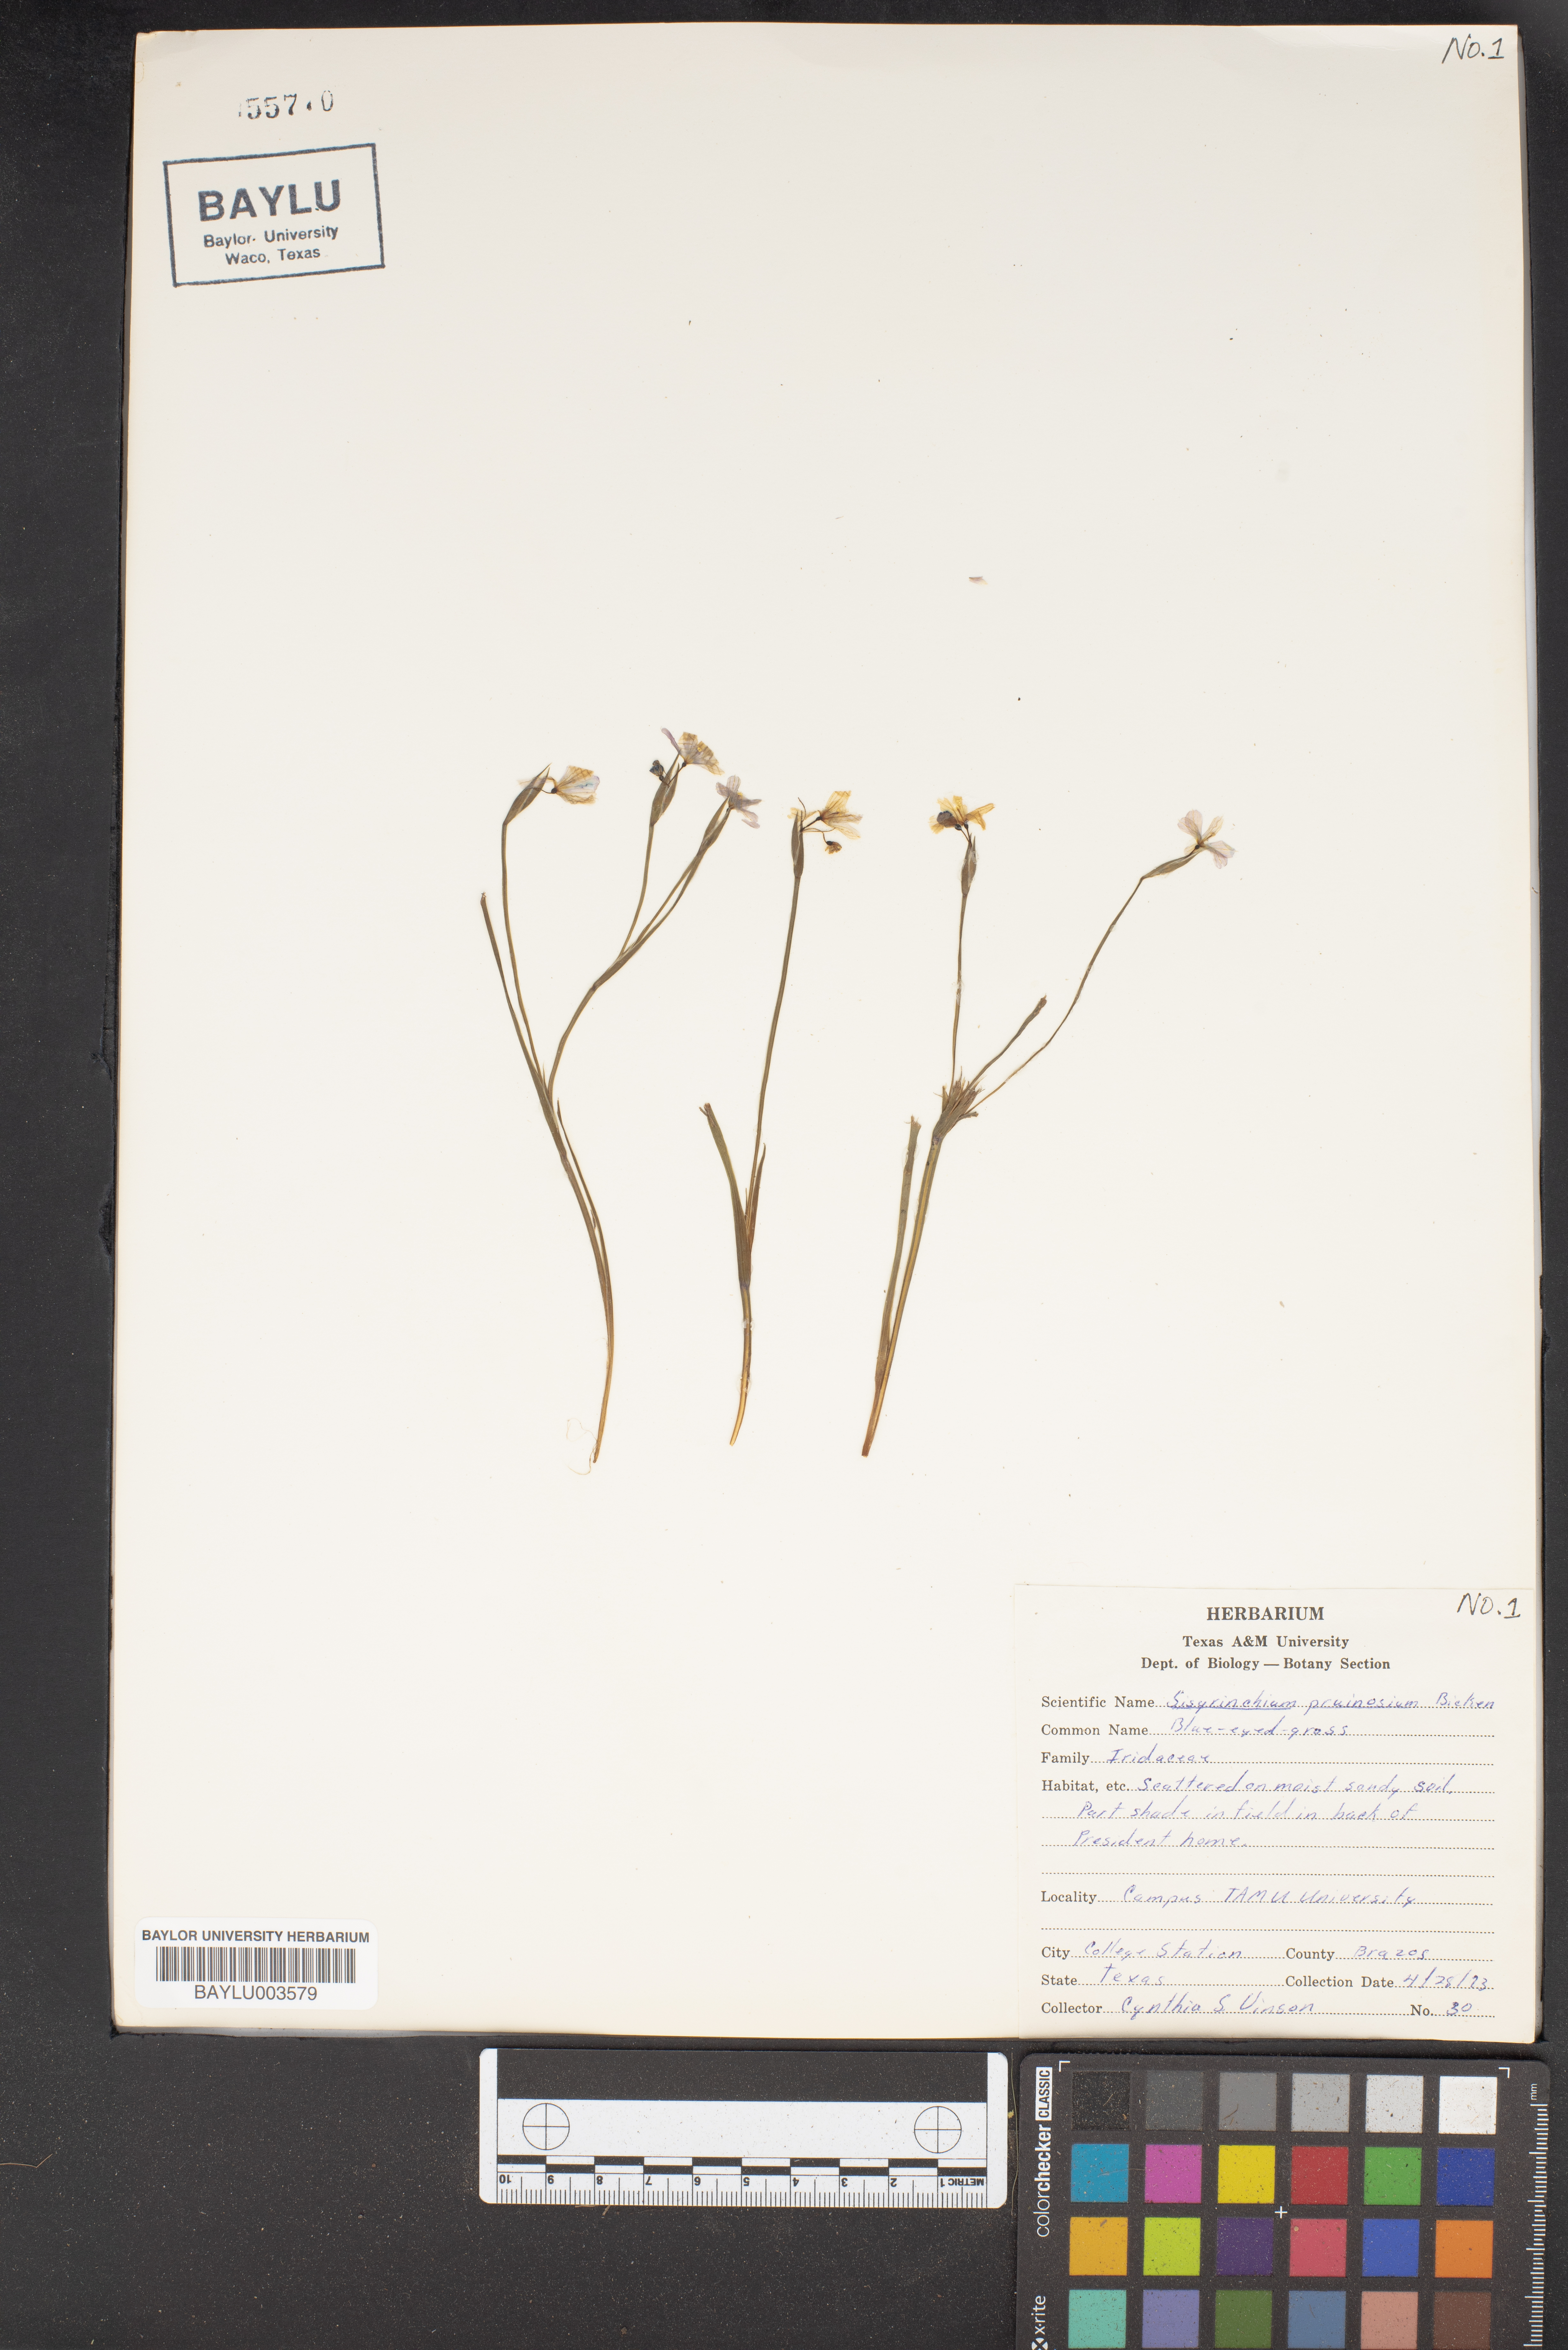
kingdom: Plantae
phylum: Tracheophyta
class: Liliopsida
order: Asparagales
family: Iridaceae
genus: Sisyrinchium
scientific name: Sisyrinchium pruinosum
